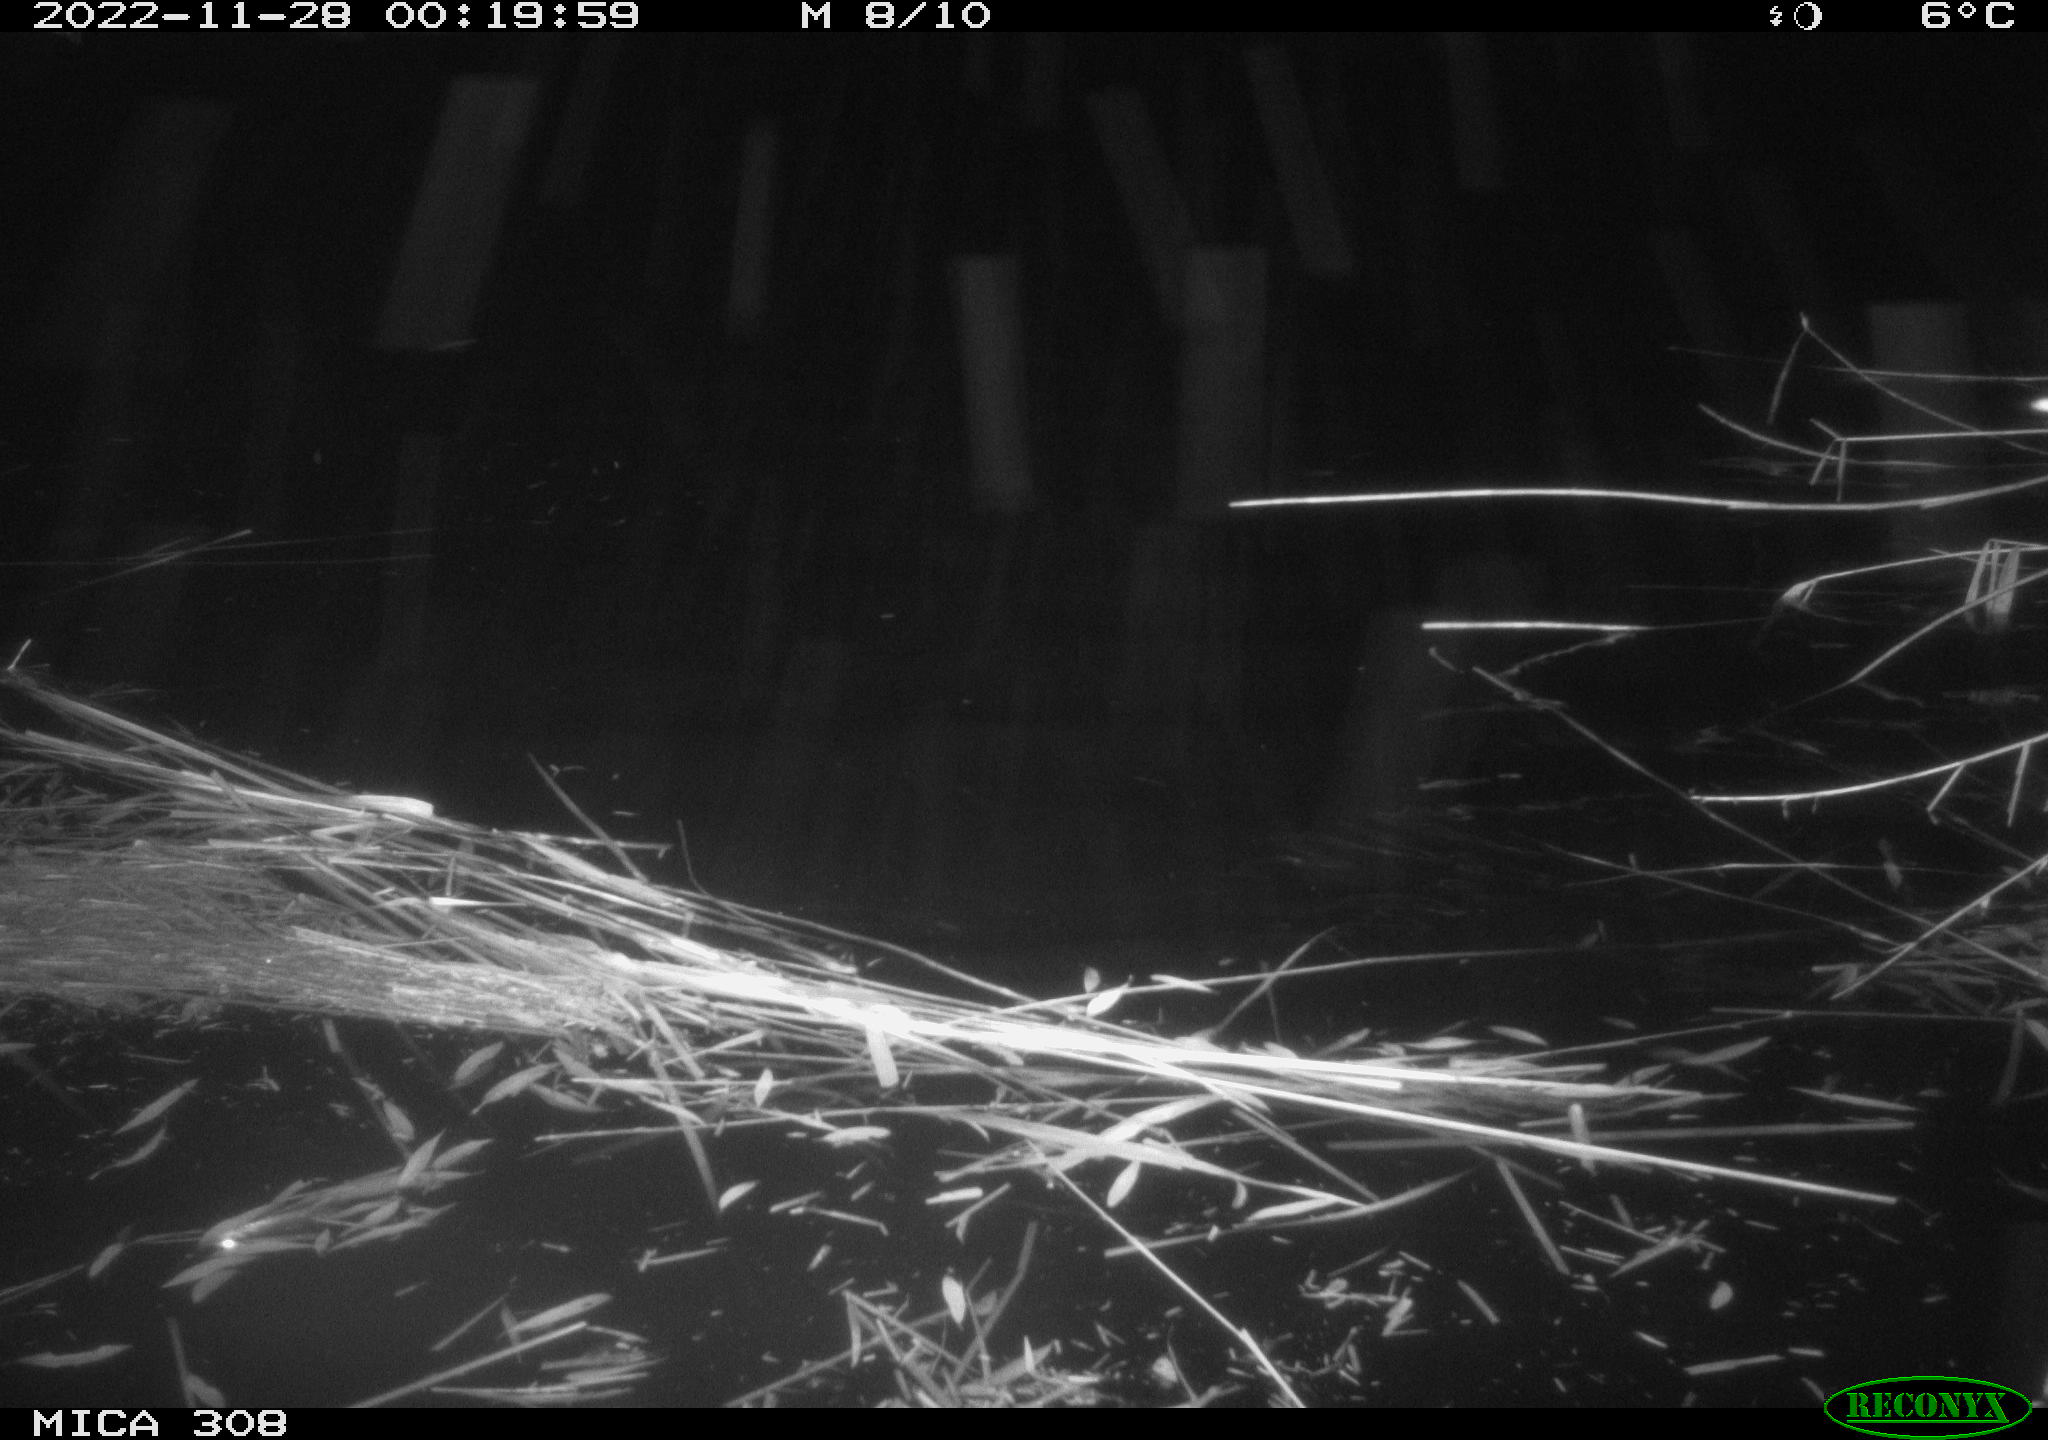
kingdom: Animalia
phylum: Chordata
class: Aves
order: Anseriformes
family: Anatidae
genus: Anas
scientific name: Anas
